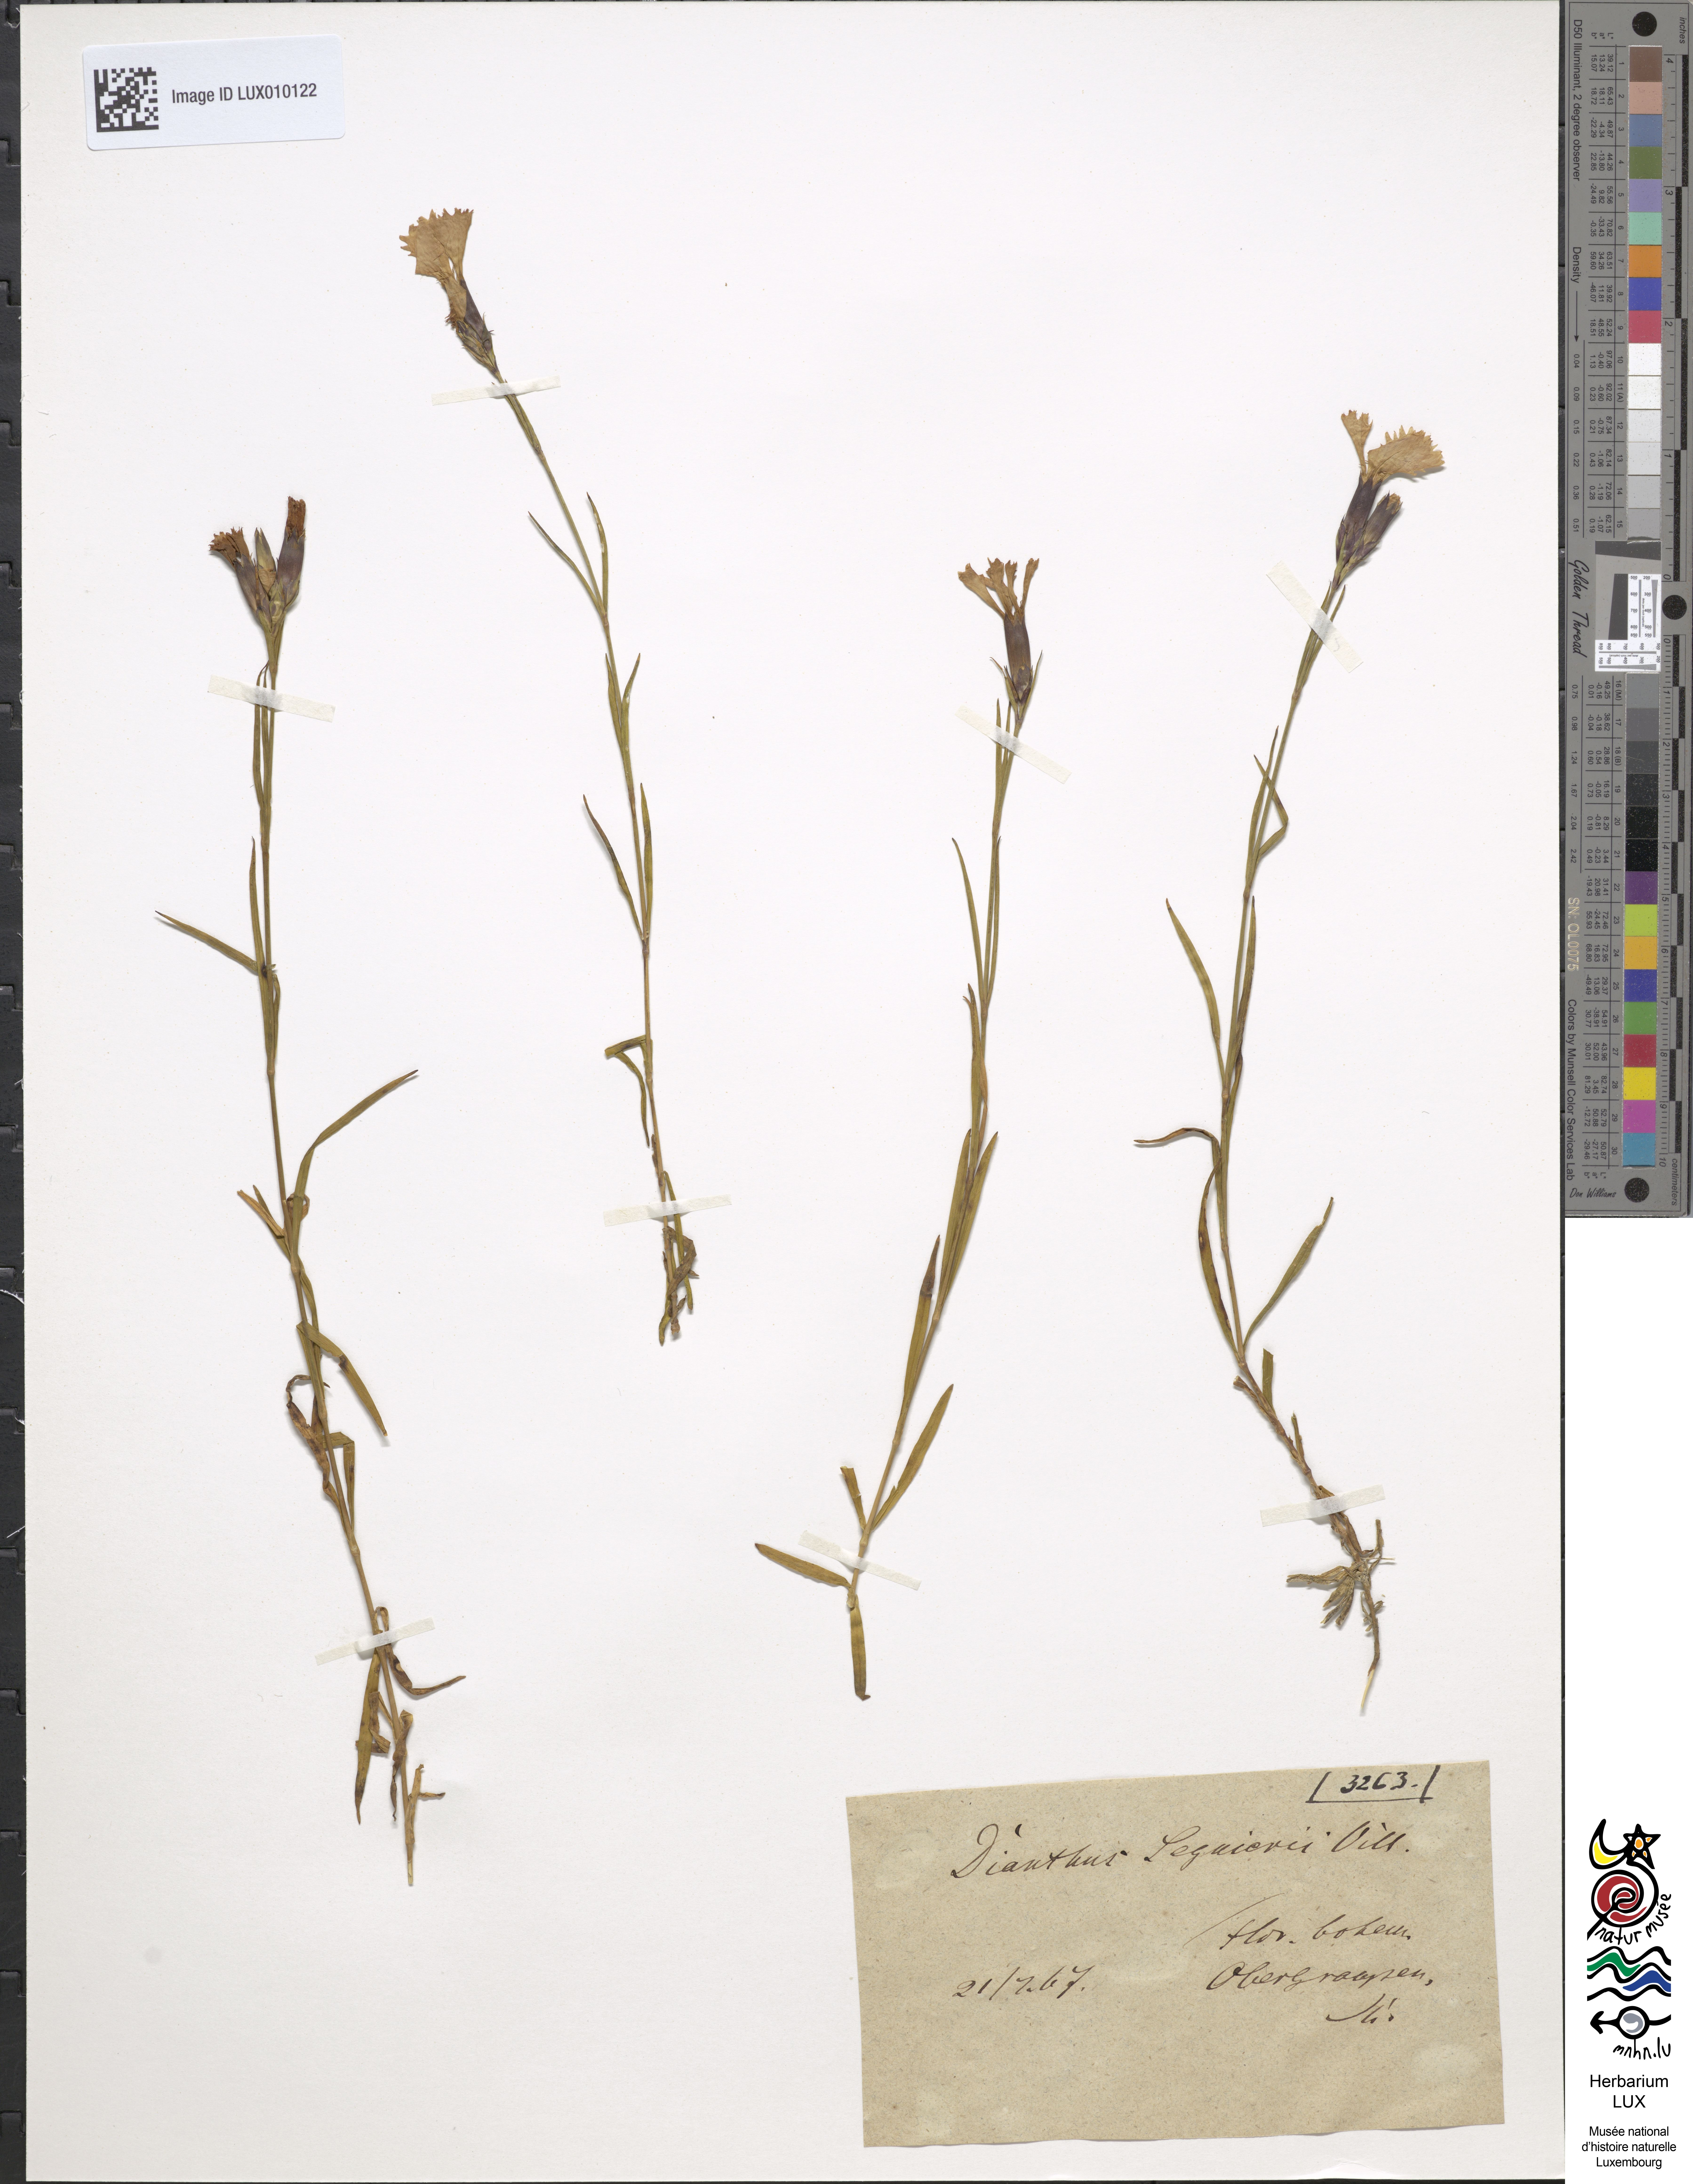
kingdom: Plantae
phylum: Tracheophyta
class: Magnoliopsida
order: Caryophyllales
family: Caryophyllaceae
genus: Dianthus
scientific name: Dianthus seguieri
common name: Ragged pink
